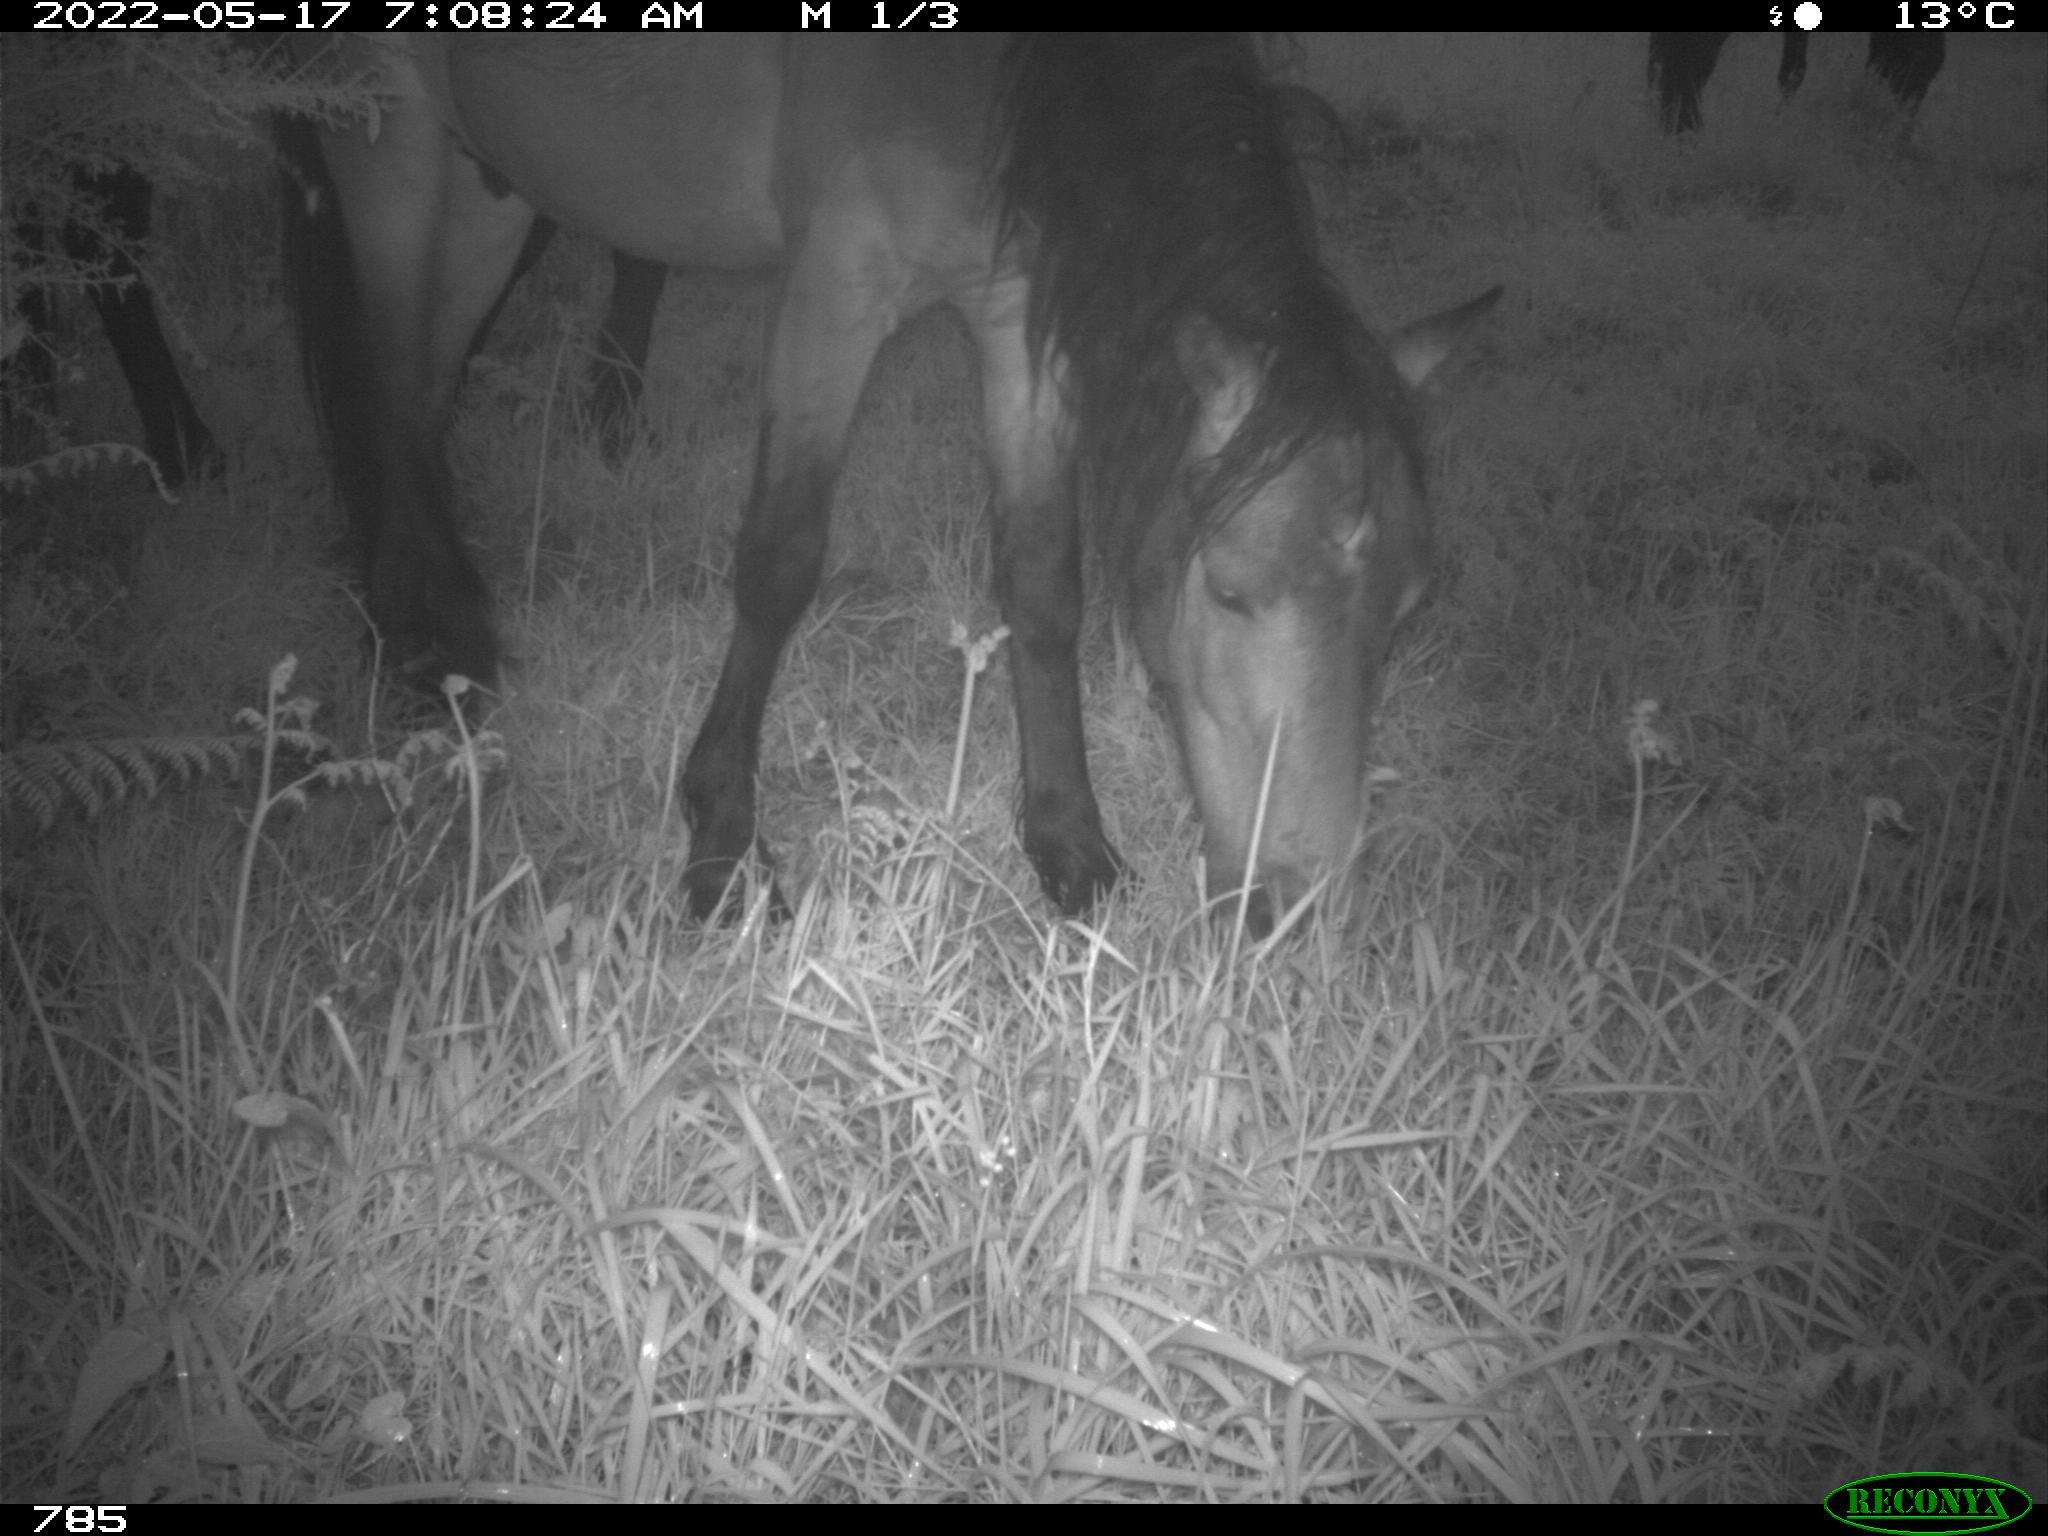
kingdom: Animalia
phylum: Chordata
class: Mammalia
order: Perissodactyla
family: Equidae
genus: Equus
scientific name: Equus caballus
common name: Horse
